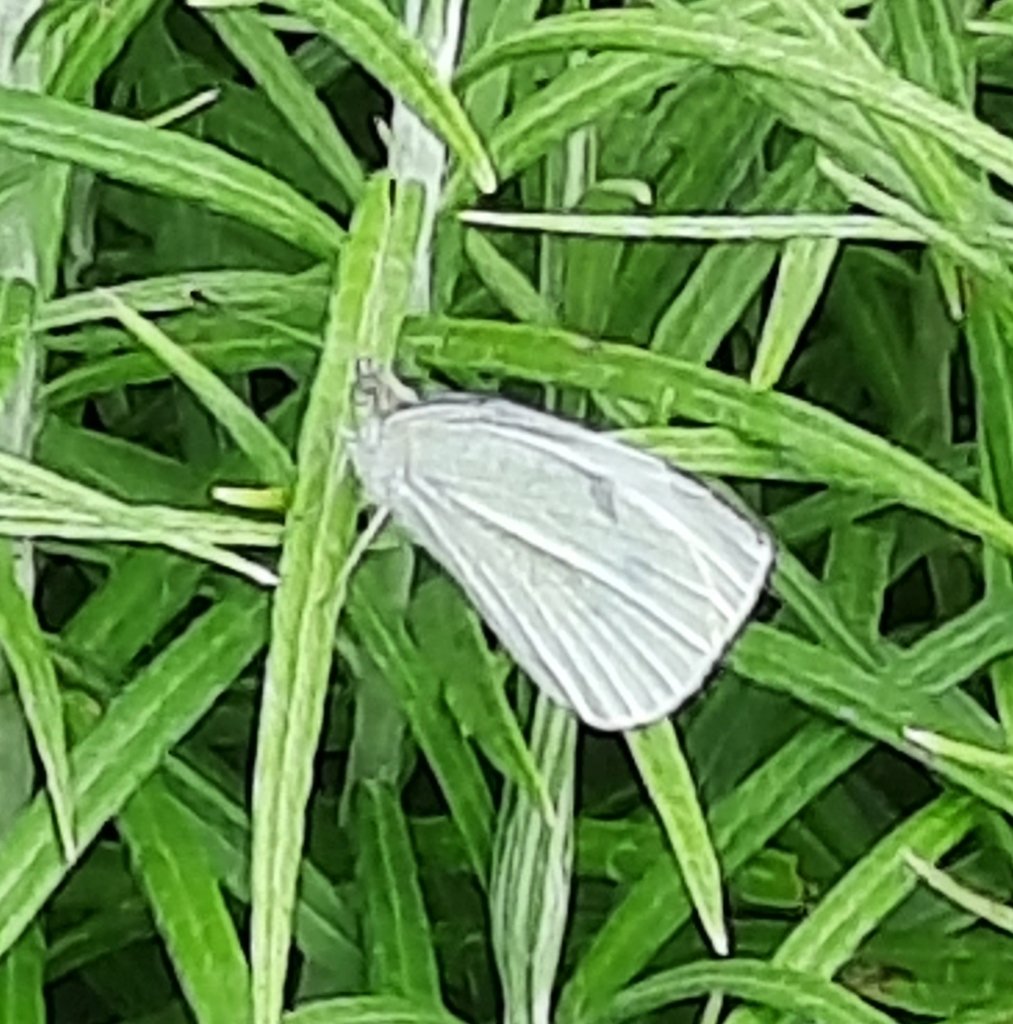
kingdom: Animalia
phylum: Arthropoda
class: Insecta
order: Lepidoptera
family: Pieridae
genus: Pieris
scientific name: Pieris rapae
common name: Cabbage White
